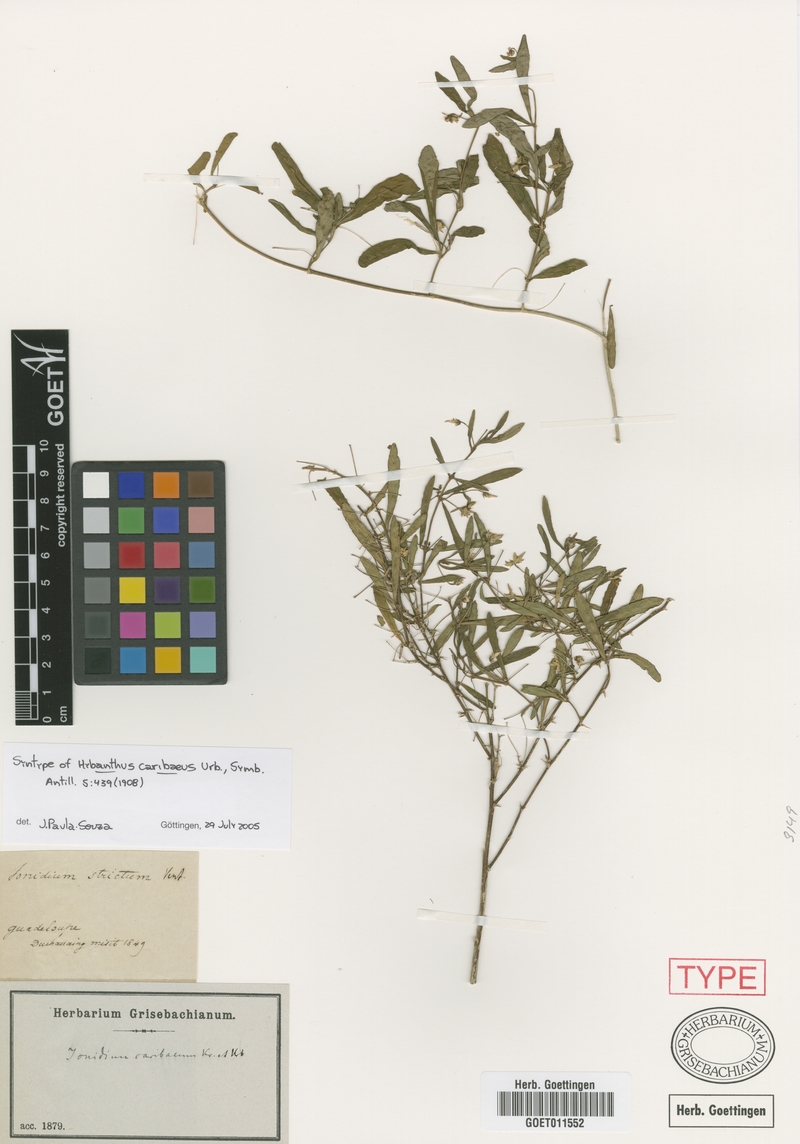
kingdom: Plantae
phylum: Tracheophyta
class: Magnoliopsida
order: Malpighiales
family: Violaceae
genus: Pombalia
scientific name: Pombalia linearifolia
